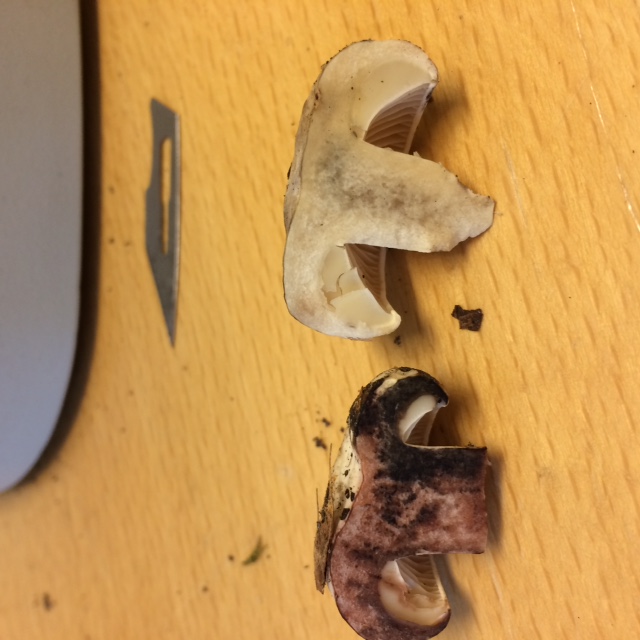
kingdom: Fungi
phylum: Basidiomycota
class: Agaricomycetes
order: Russulales
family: Russulaceae
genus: Russula
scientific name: Russula adusta
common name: sværtende skørhat
